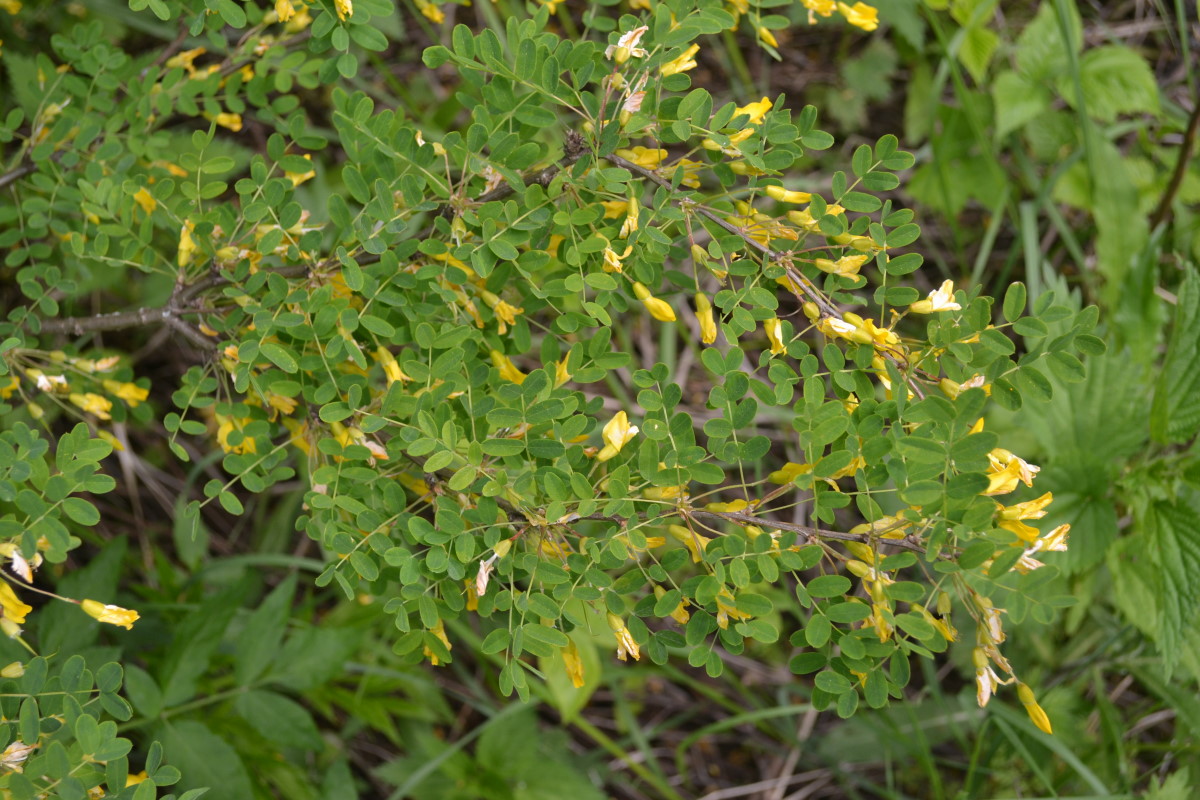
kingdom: Plantae
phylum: Tracheophyta
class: Magnoliopsida
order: Fabales
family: Fabaceae
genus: Caragana
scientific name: Caragana arborescens
